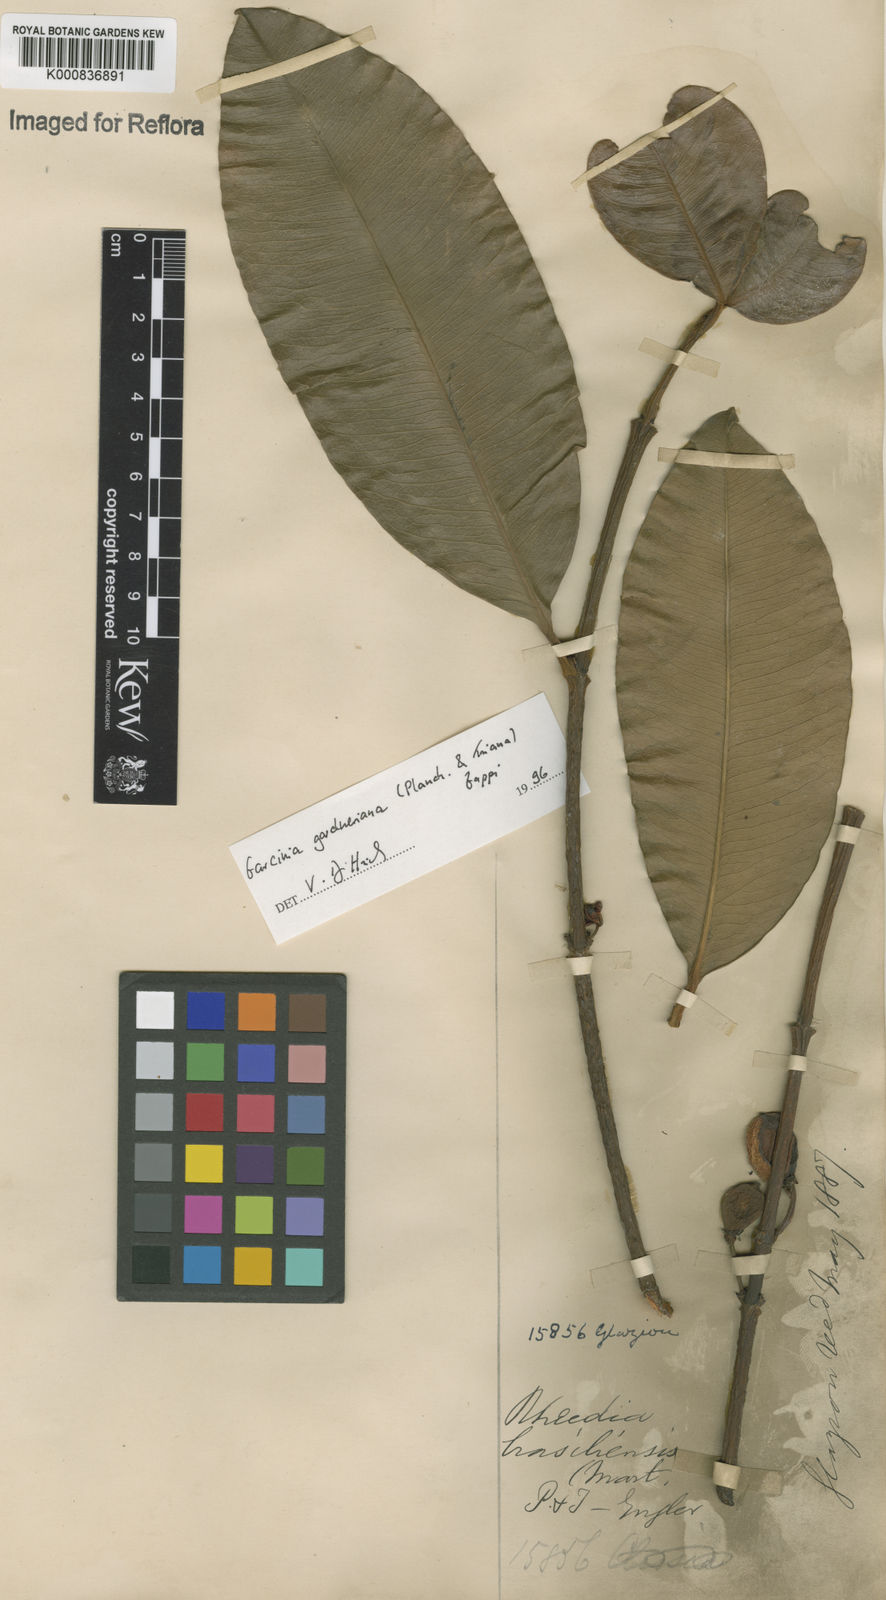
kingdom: Plantae
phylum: Tracheophyta
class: Magnoliopsida
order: Malpighiales
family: Clusiaceae
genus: Garcinia
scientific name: Garcinia gardneriana
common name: Achacha
